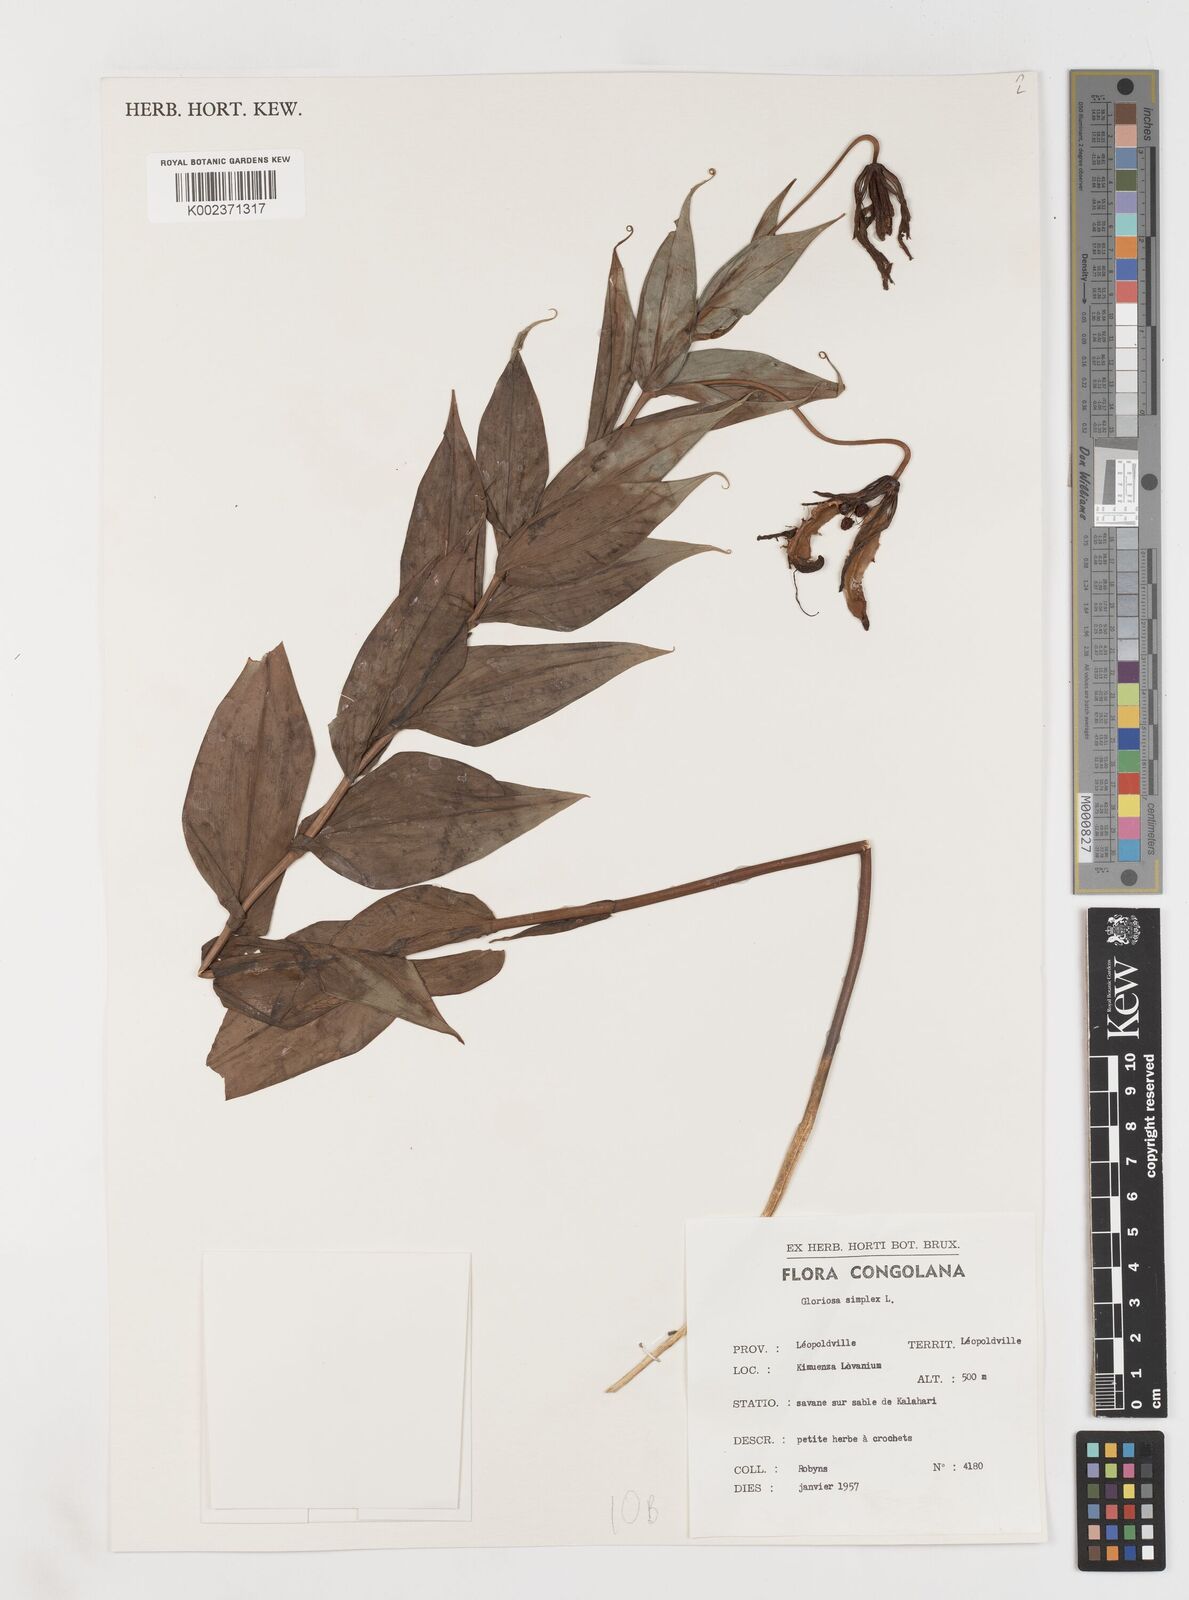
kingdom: Plantae
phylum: Tracheophyta
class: Liliopsida
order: Liliales
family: Colchicaceae
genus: Gloriosa
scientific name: Gloriosa simplex
